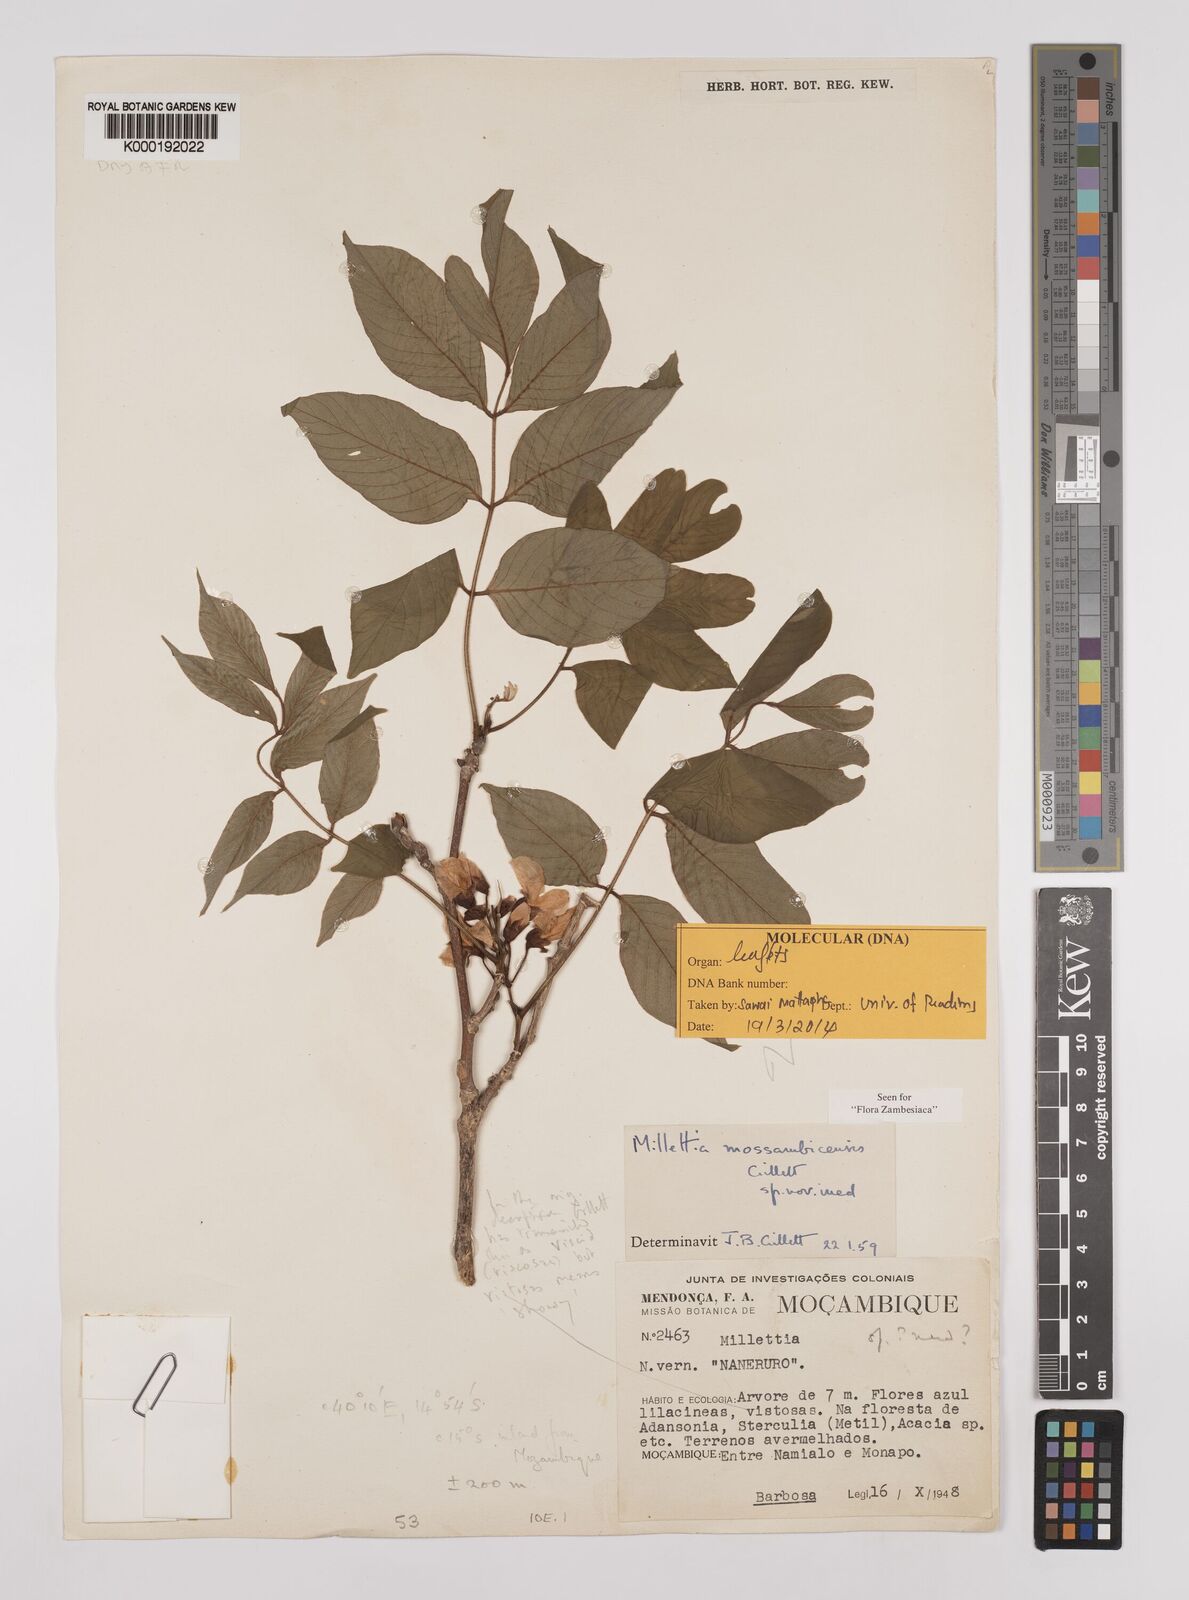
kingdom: Plantae
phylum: Tracheophyta
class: Magnoliopsida
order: Fabales
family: Fabaceae
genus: Millettia
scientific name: Millettia mossambicensis
